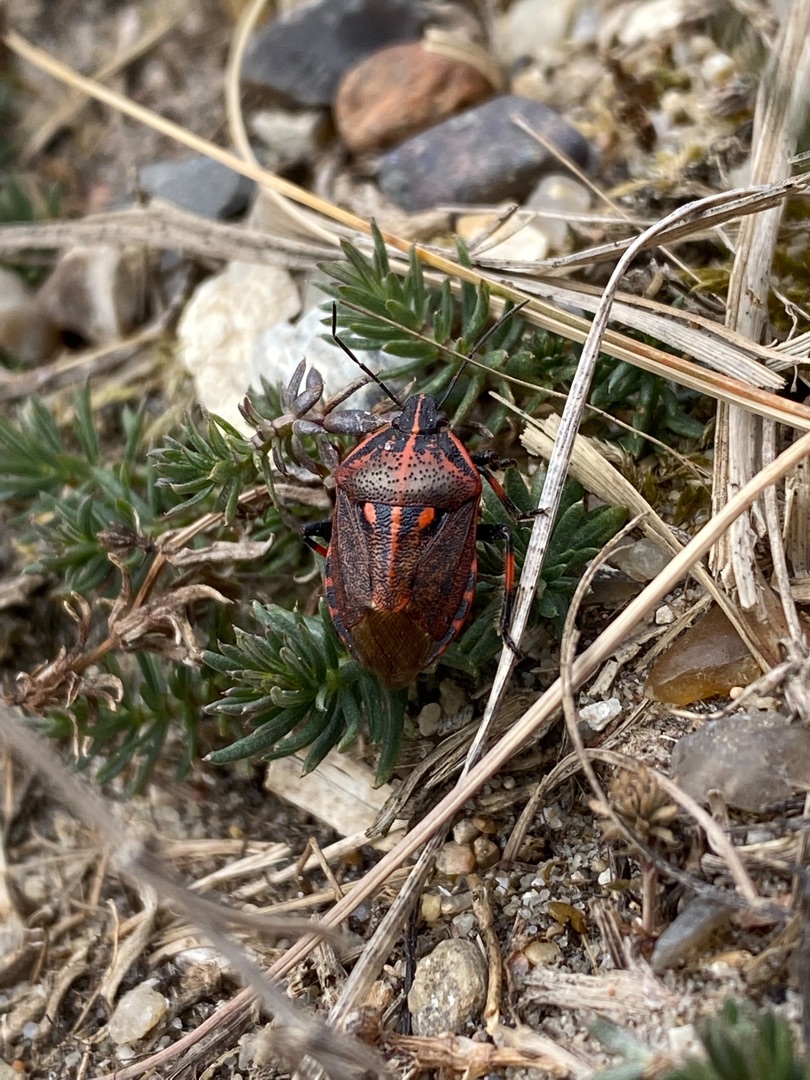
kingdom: Animalia
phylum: Arthropoda
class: Insecta
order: Hemiptera
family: Pentatomidae
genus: Jalla
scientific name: Jalla dumosa
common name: Stregtæge
